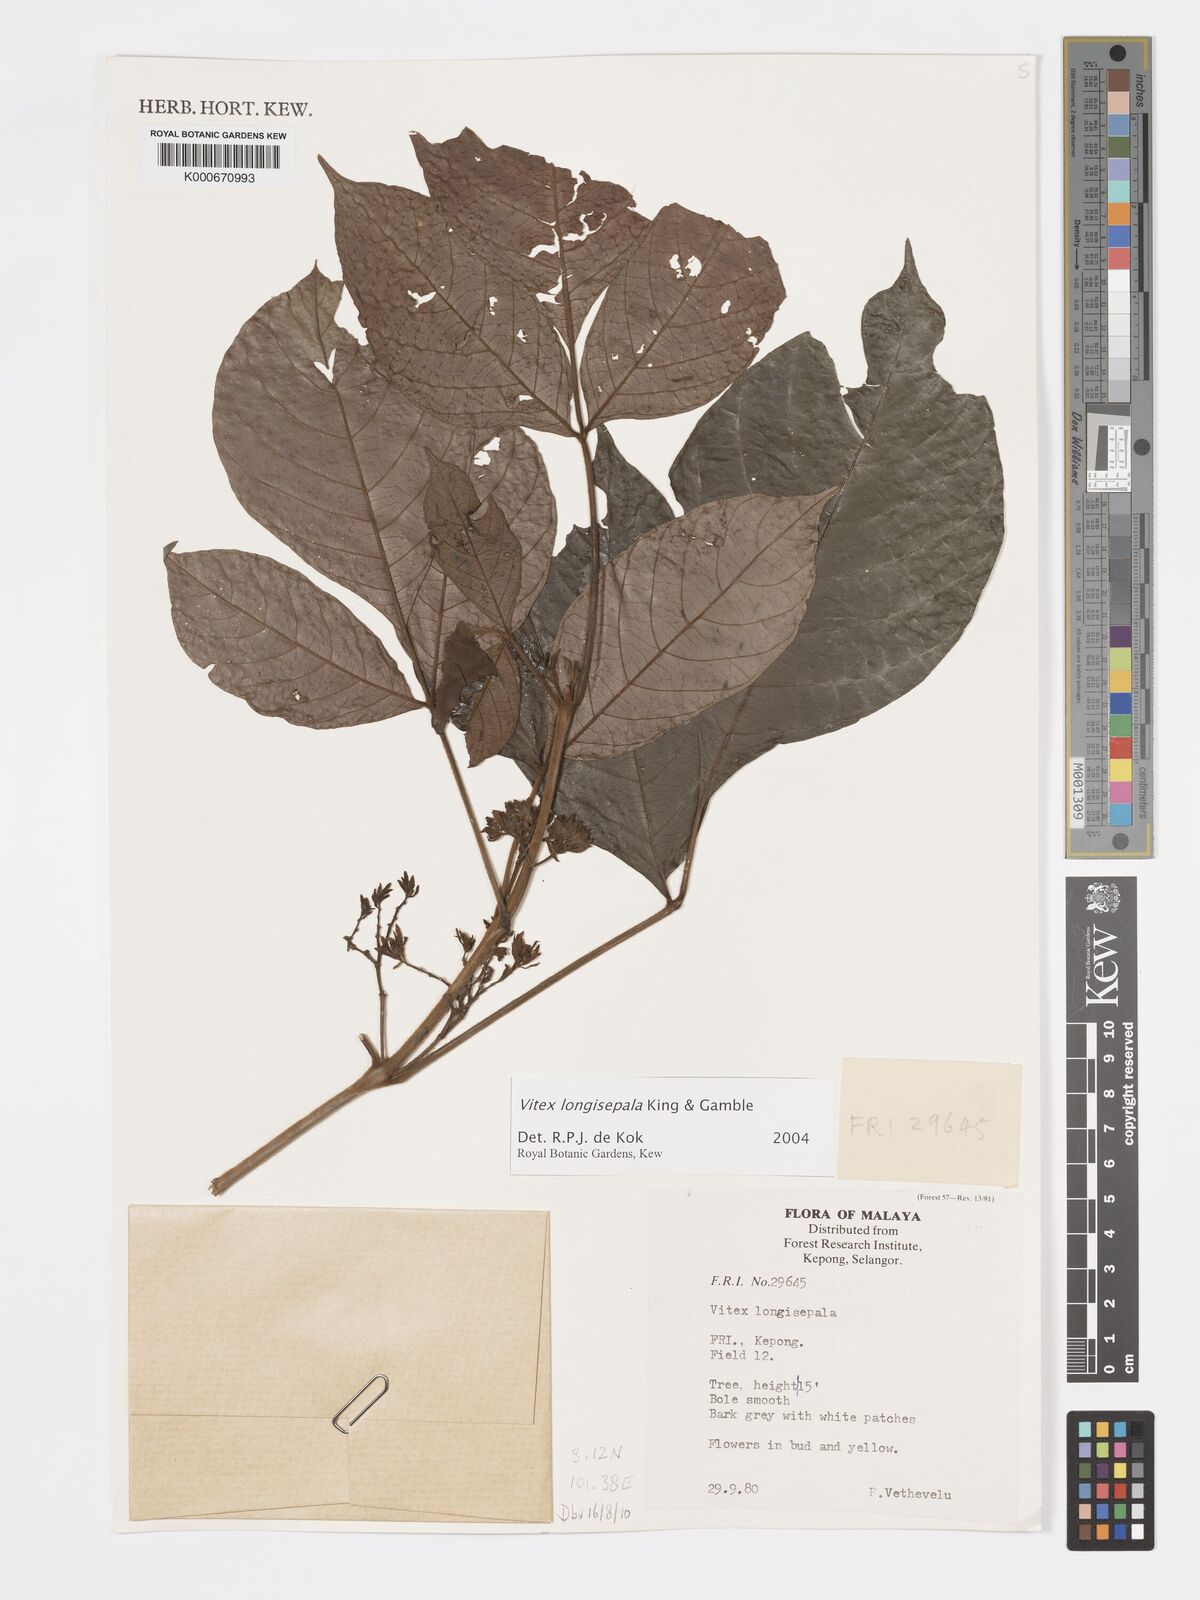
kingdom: Plantae
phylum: Tracheophyta
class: Magnoliopsida
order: Lamiales
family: Lamiaceae
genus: Vitex
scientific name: Vitex longisepala
